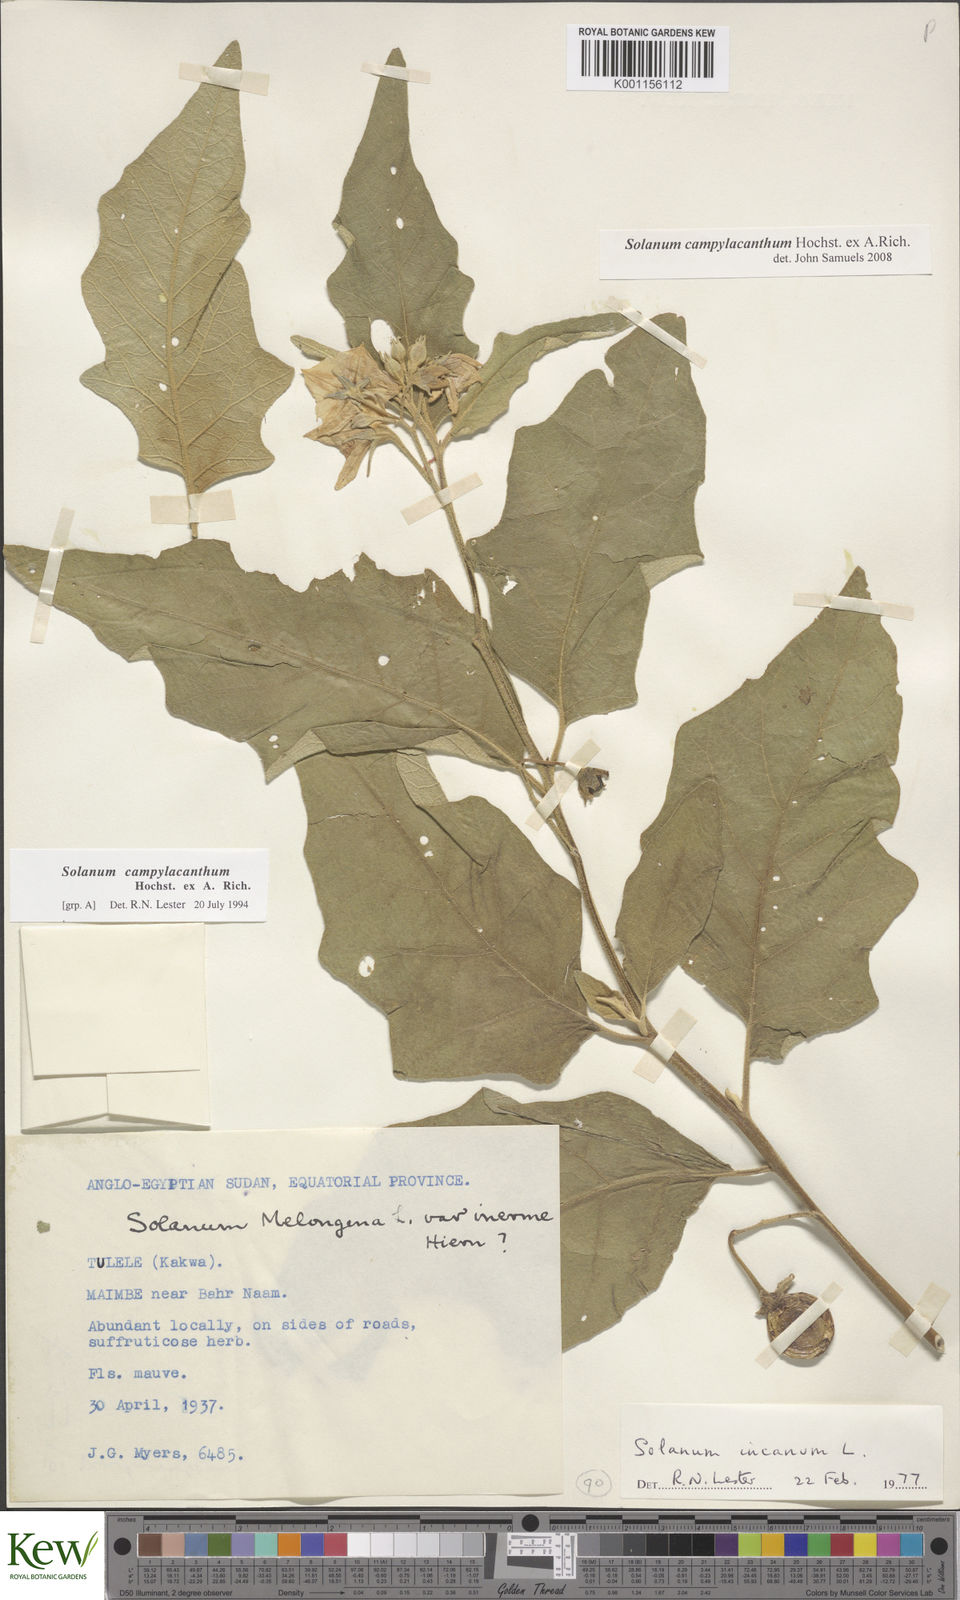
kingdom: Plantae
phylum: Tracheophyta
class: Magnoliopsida
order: Solanales
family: Solanaceae
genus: Solanum
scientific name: Solanum campylacanthum
